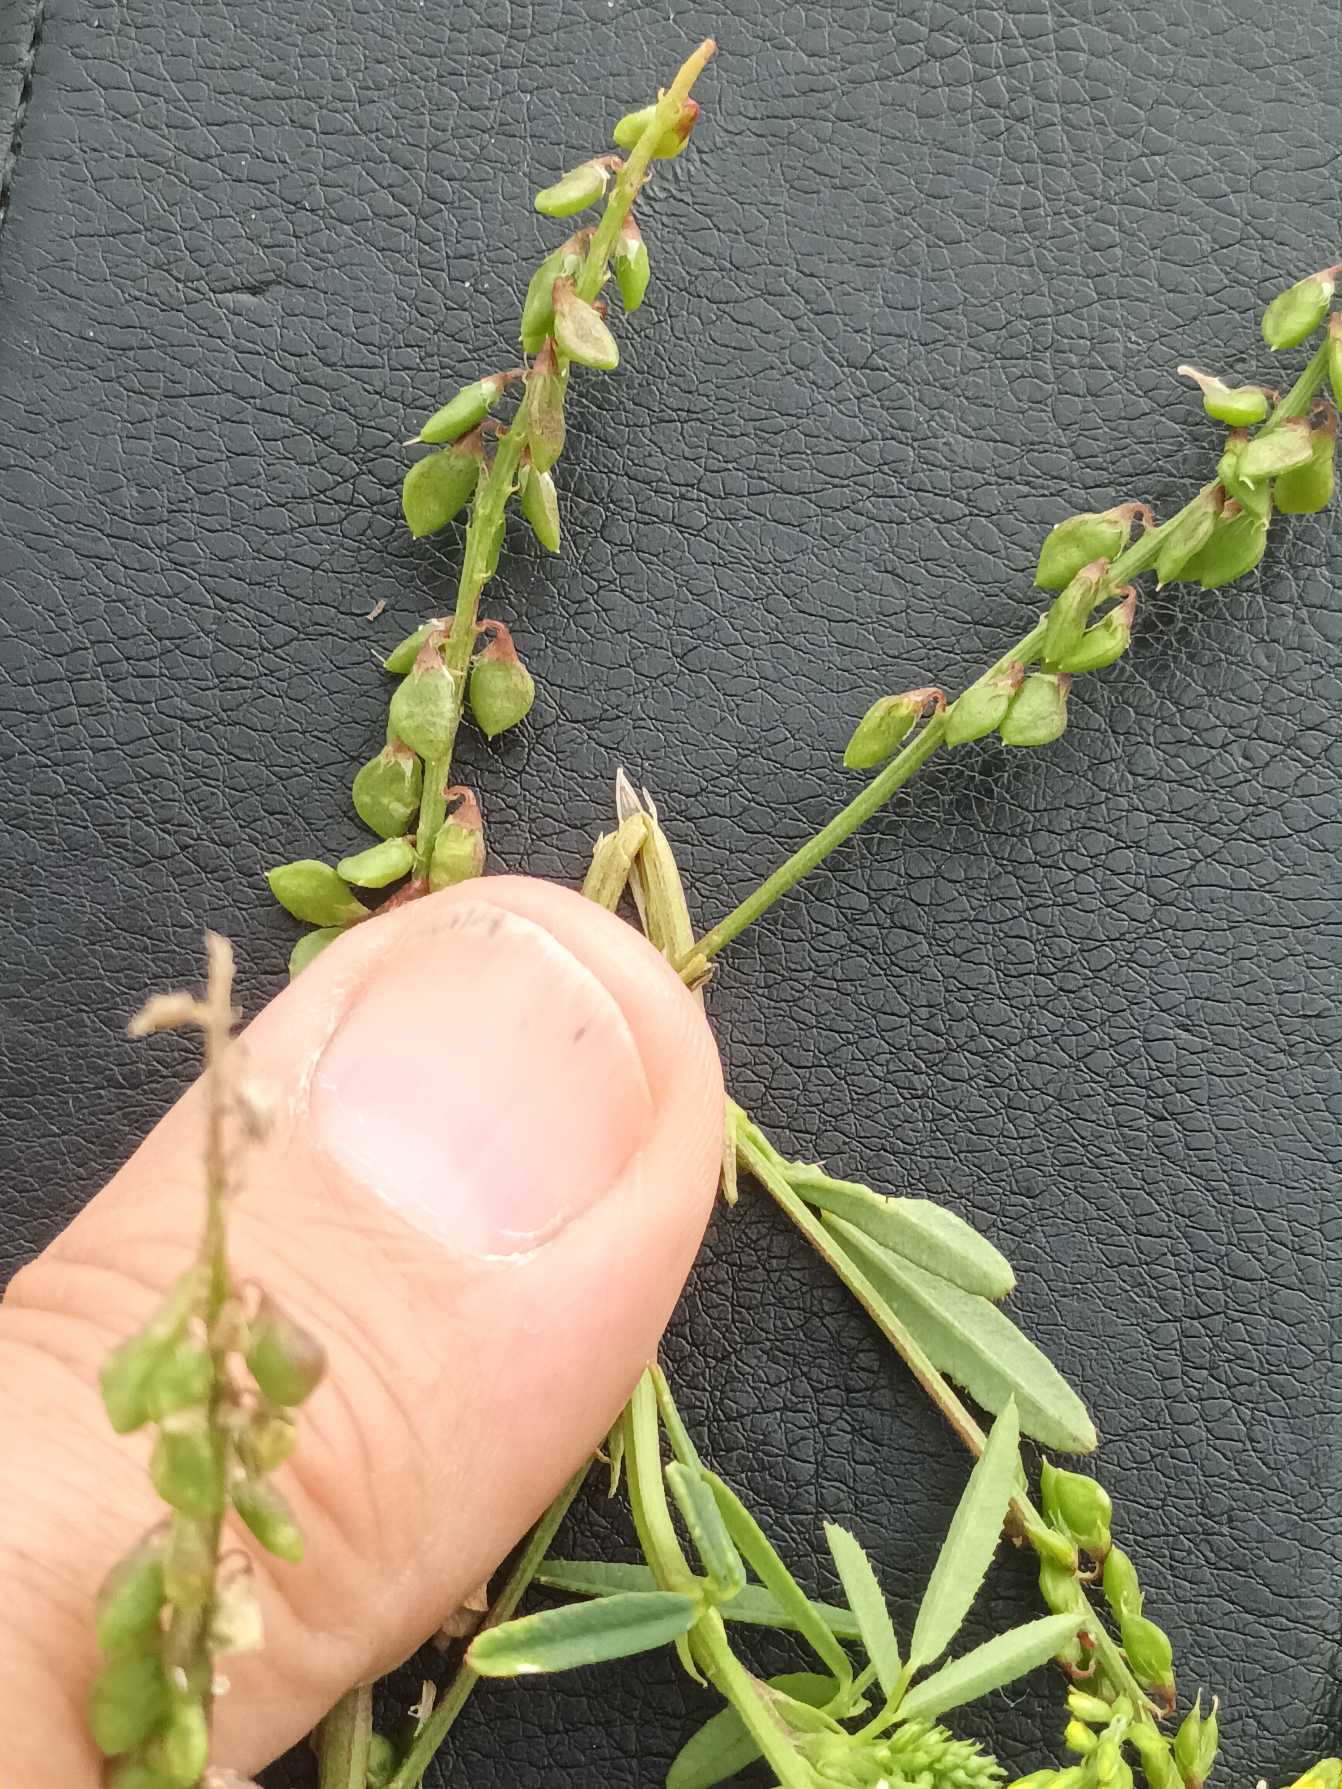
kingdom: Plantae
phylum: Tracheophyta
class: Magnoliopsida
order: Fabales
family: Fabaceae
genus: Melilotus
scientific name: Melilotus dentatus
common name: Strand-stenkløver
